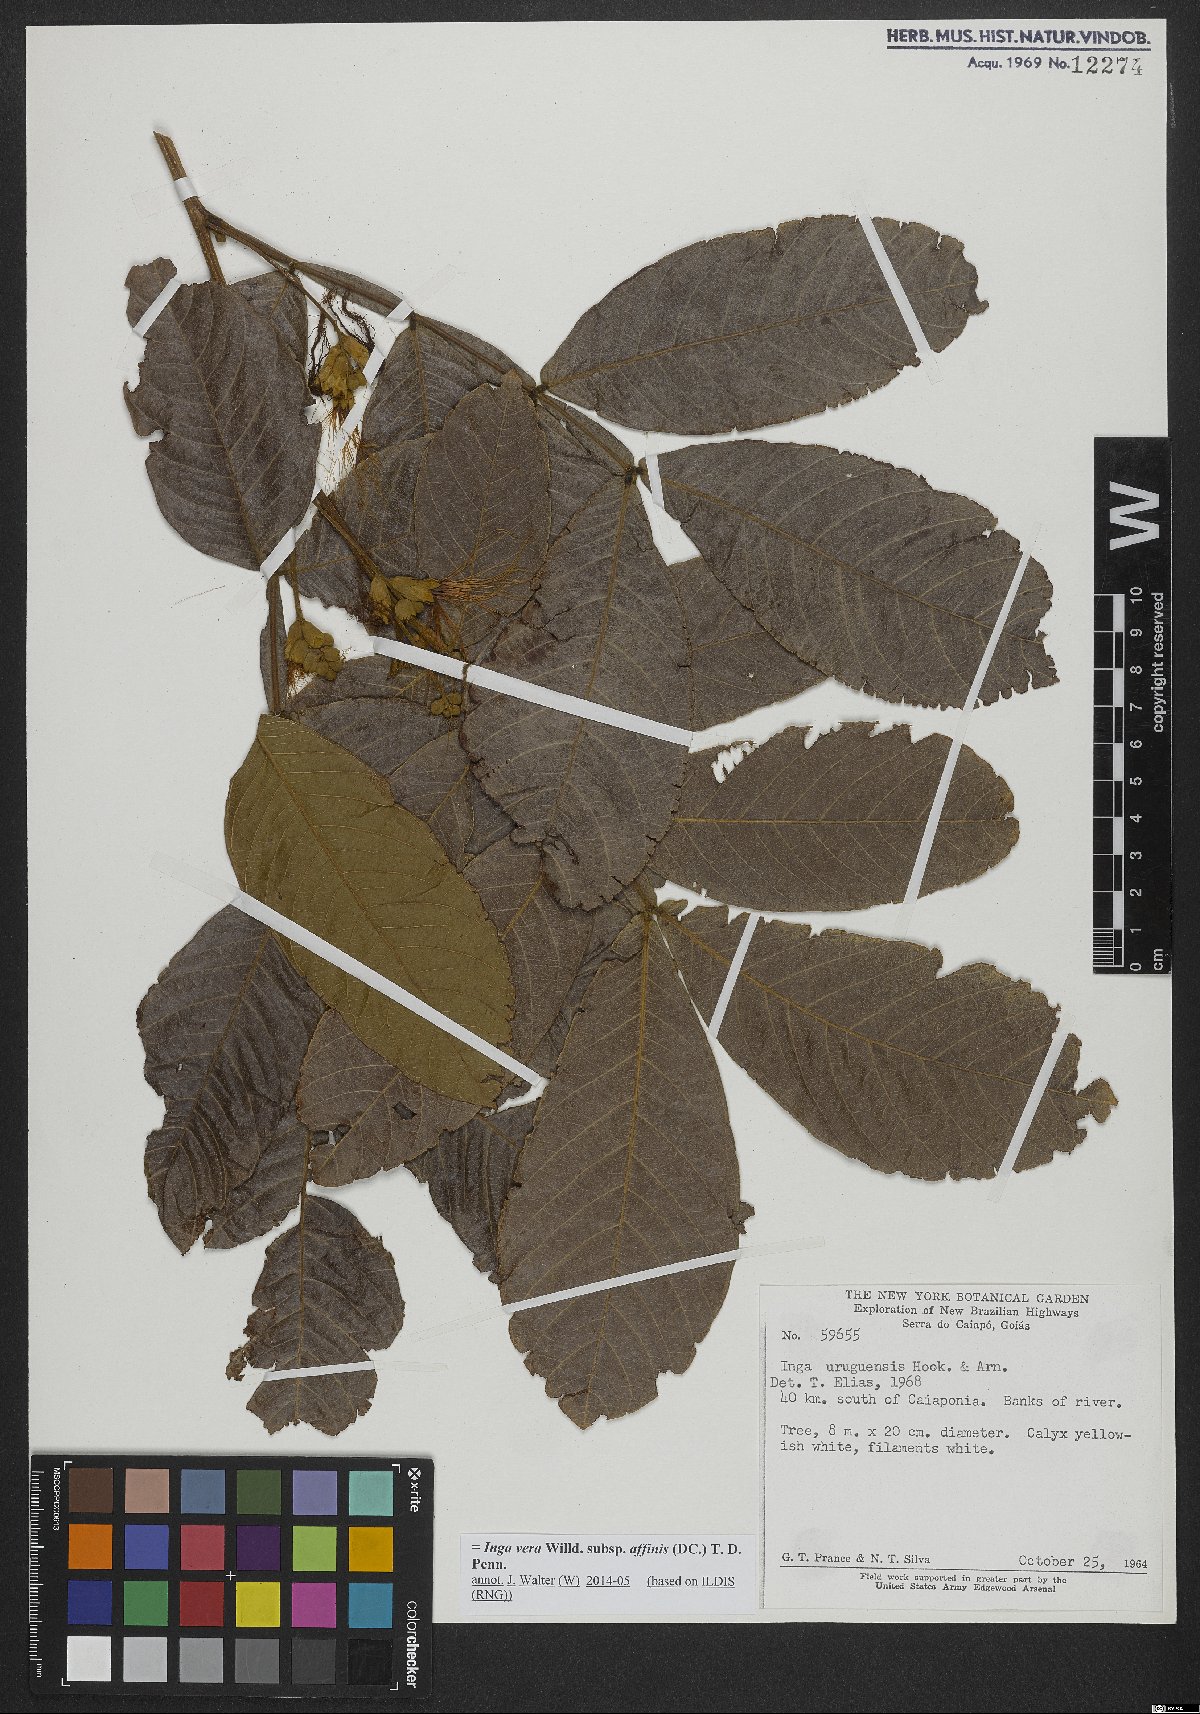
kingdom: Plantae
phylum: Tracheophyta
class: Magnoliopsida
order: Fabales
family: Fabaceae
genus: Inga
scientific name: Inga affinis
